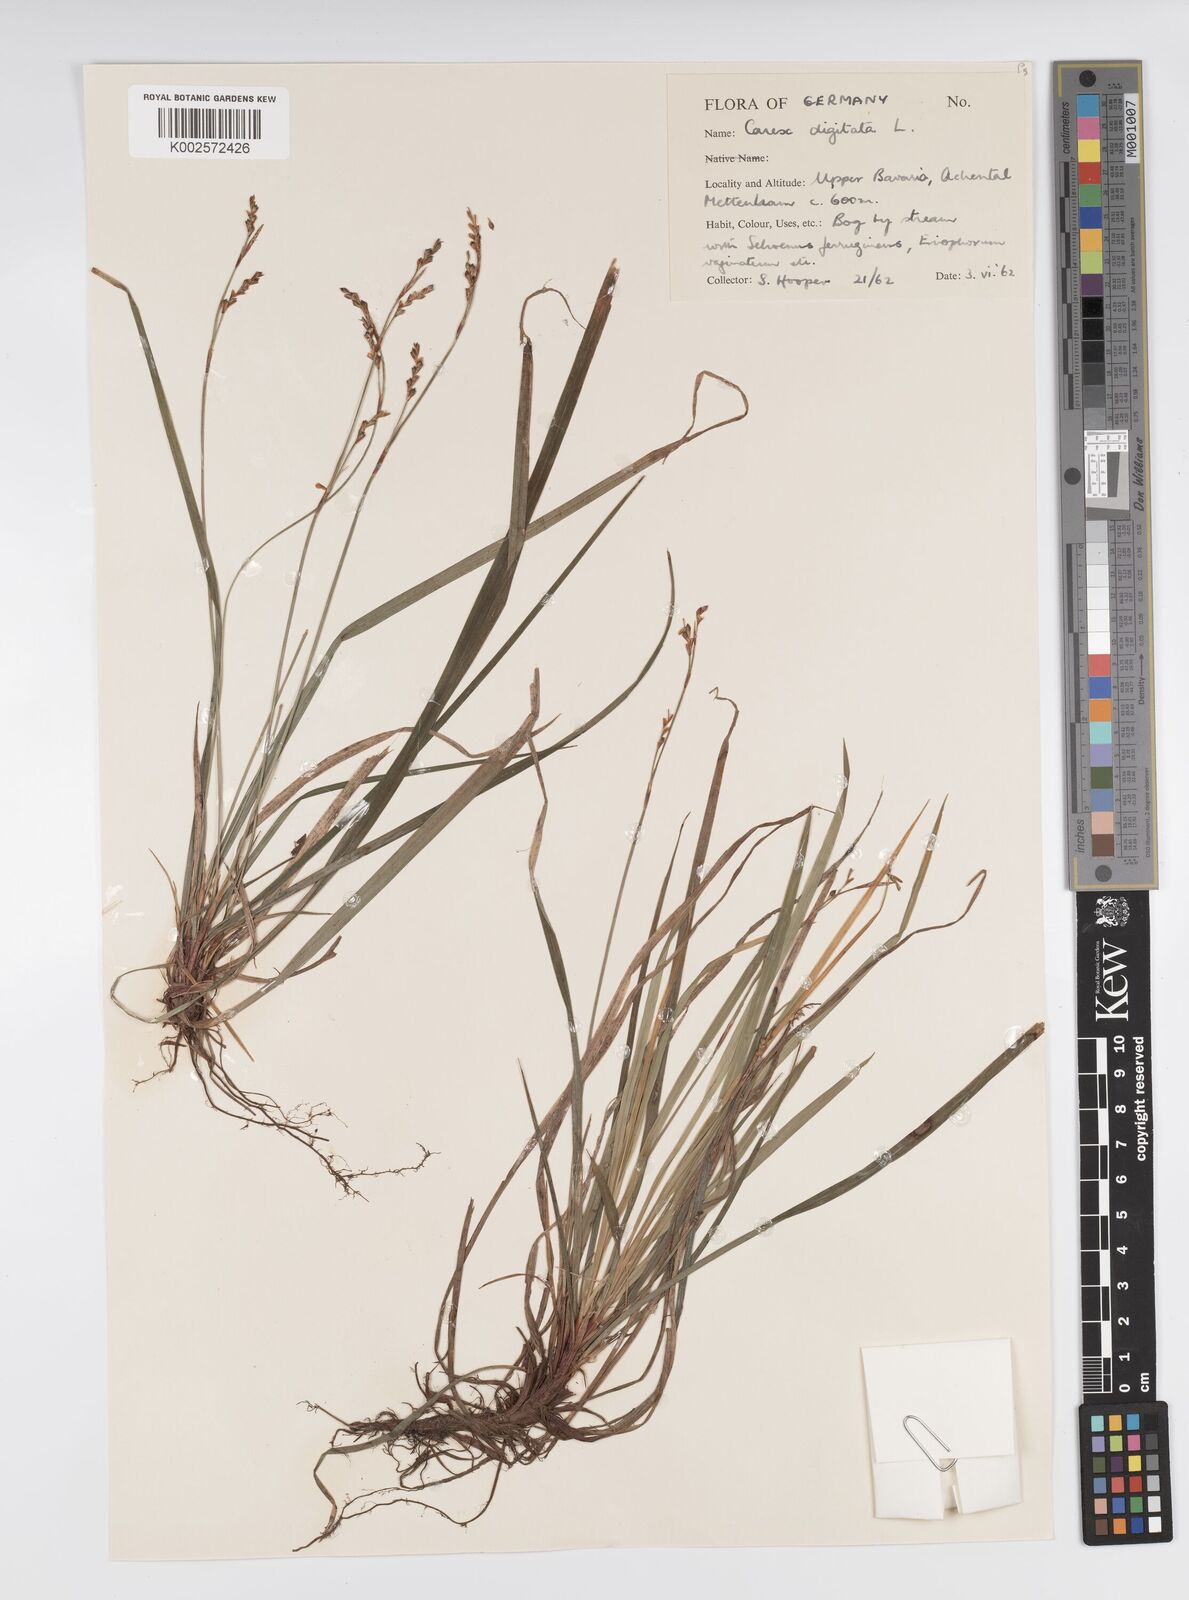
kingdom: Plantae
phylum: Tracheophyta
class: Liliopsida
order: Poales
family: Cyperaceae
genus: Carex
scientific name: Carex digitata
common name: Fingered sedge
